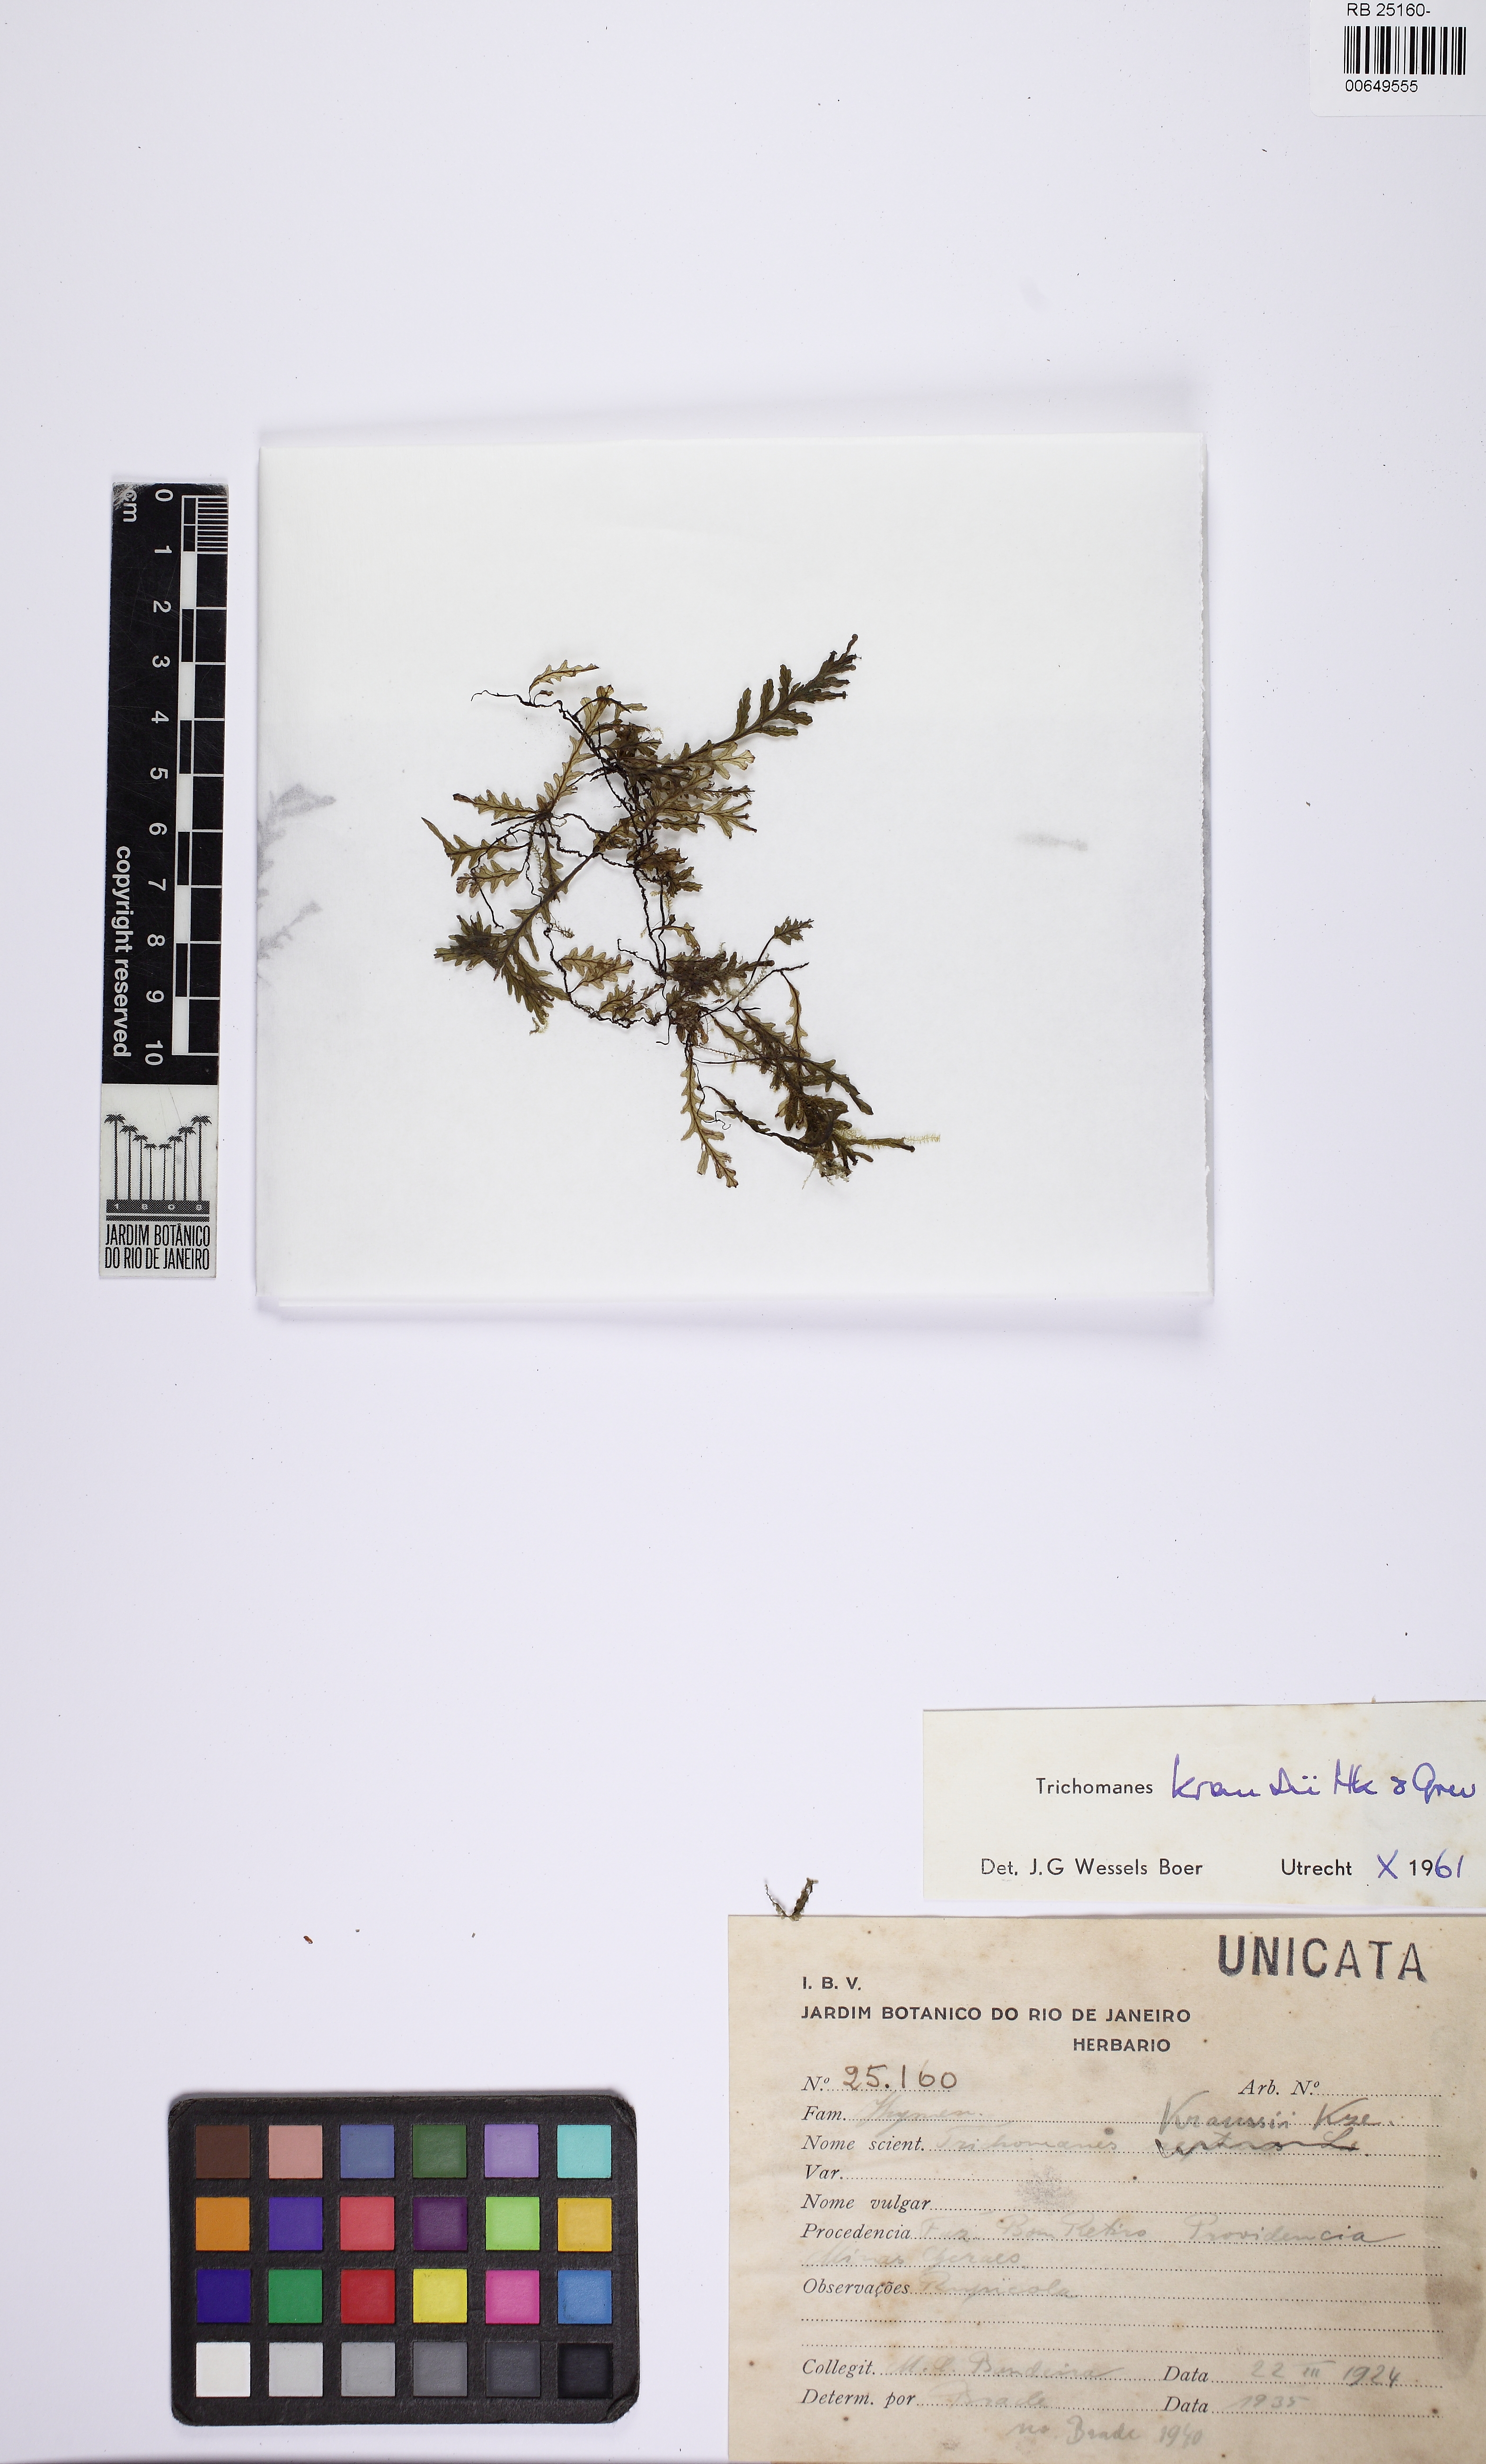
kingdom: Plantae
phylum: Tracheophyta
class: Polypodiopsida
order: Hymenophyllales
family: Hymenophyllaceae
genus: Didymoglossum
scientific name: Didymoglossum kraussii
